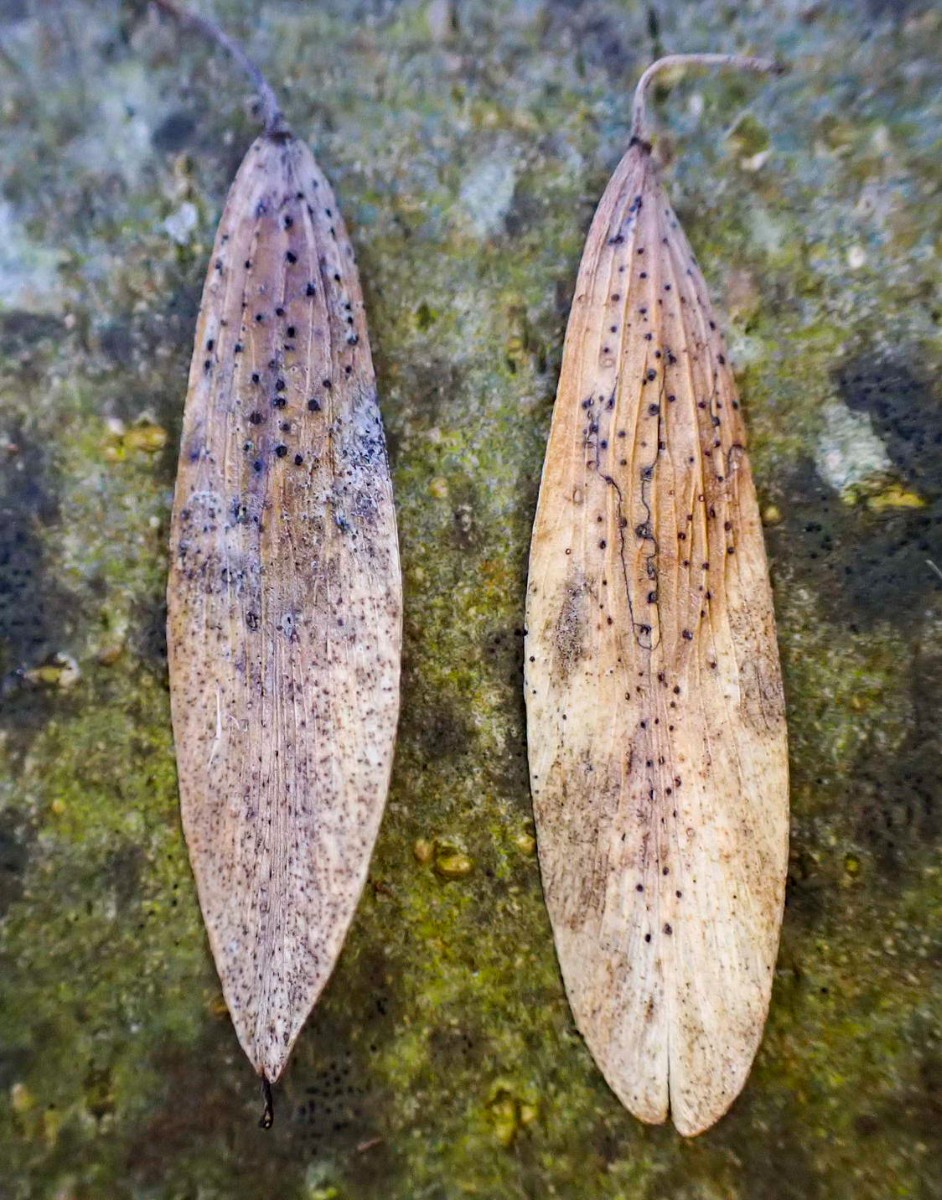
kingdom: Fungi
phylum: Ascomycota
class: Sordariomycetes
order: Diaporthales
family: Diaporthaceae
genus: Diaporthe
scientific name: Diaporthe samaricola
